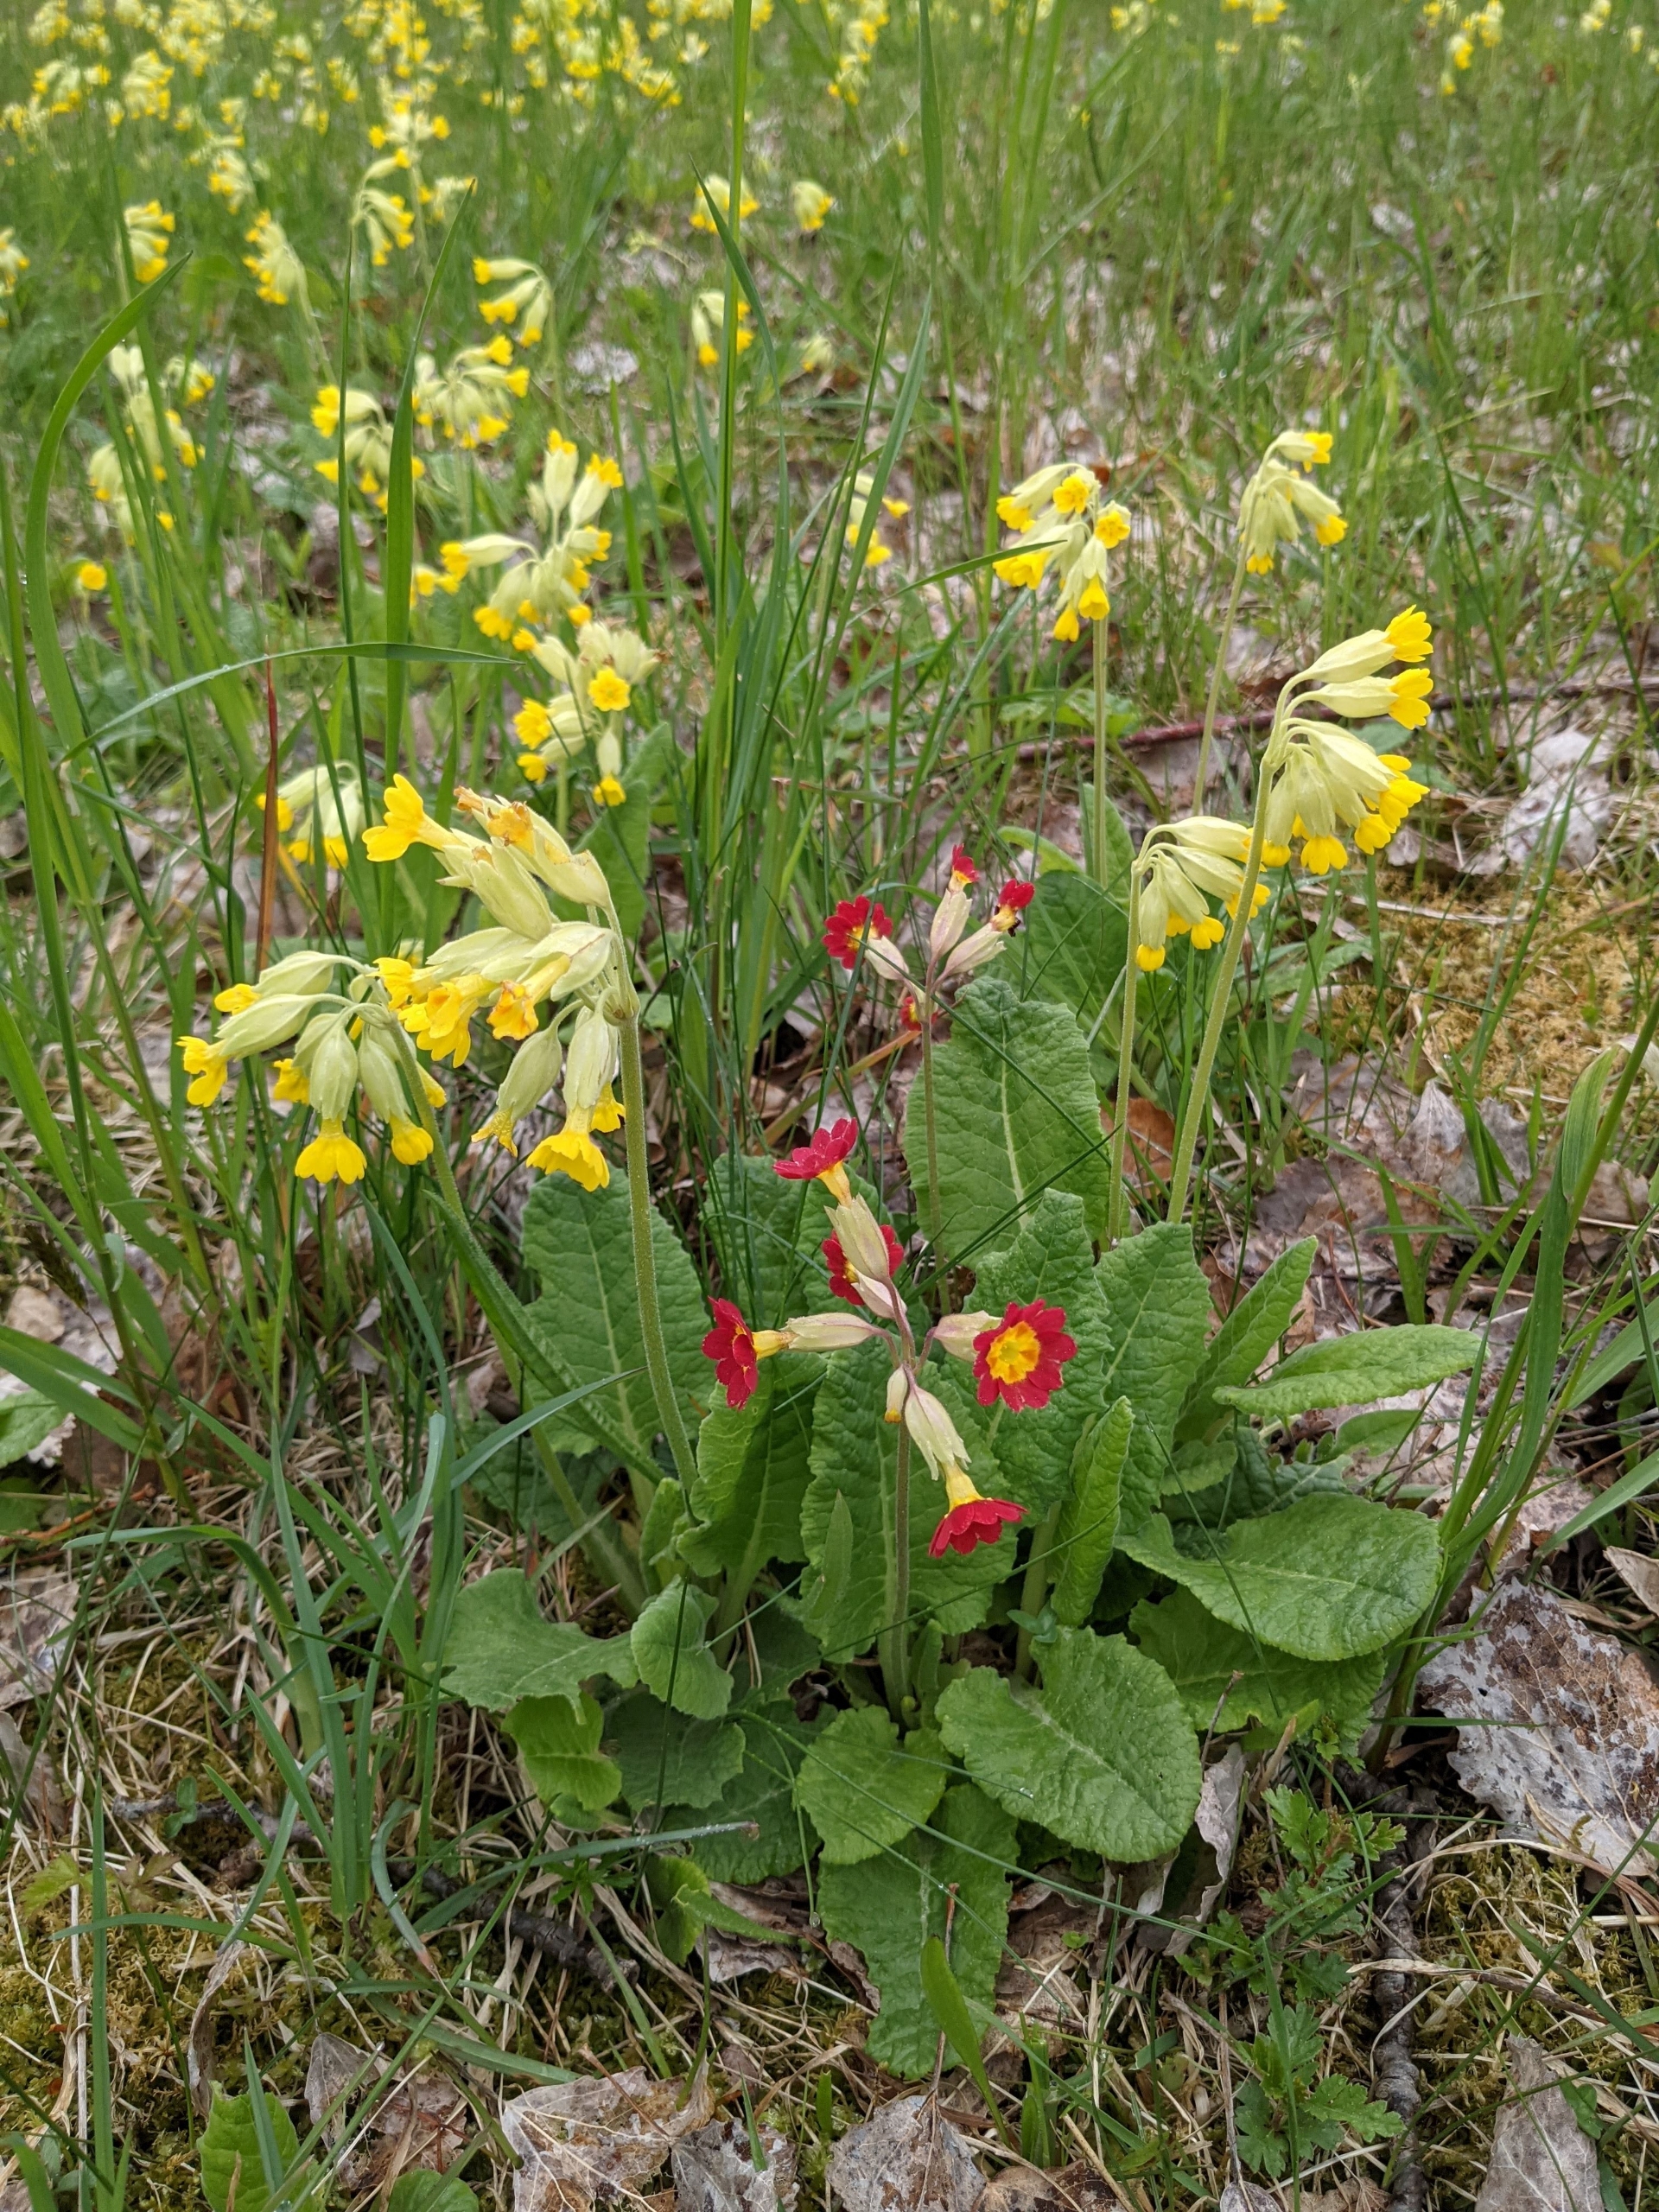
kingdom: Plantae
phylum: Tracheophyta
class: Magnoliopsida
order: Ericales
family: Primulaceae
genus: Primula
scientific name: Primula veris
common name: Hulkravet kodriver
